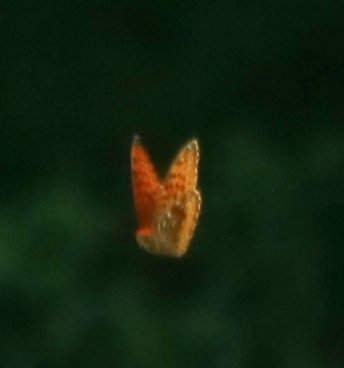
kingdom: Animalia
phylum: Arthropoda
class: Insecta
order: Lepidoptera
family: Nymphalidae
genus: Speyeria
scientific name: Speyeria cybele
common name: Great Spangled Fritillary
